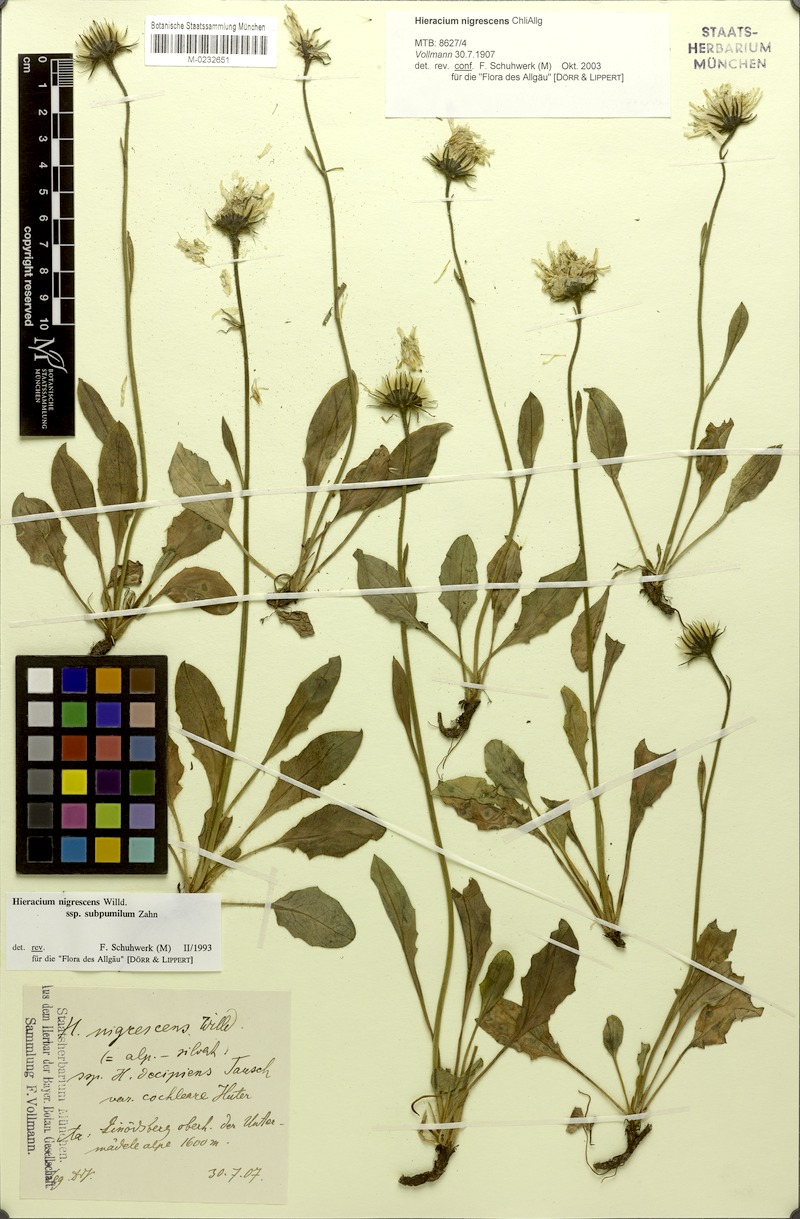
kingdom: Plantae
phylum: Tracheophyta
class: Magnoliopsida
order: Asterales
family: Asteraceae
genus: Hieracium
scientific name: Hieracium nigrescens
